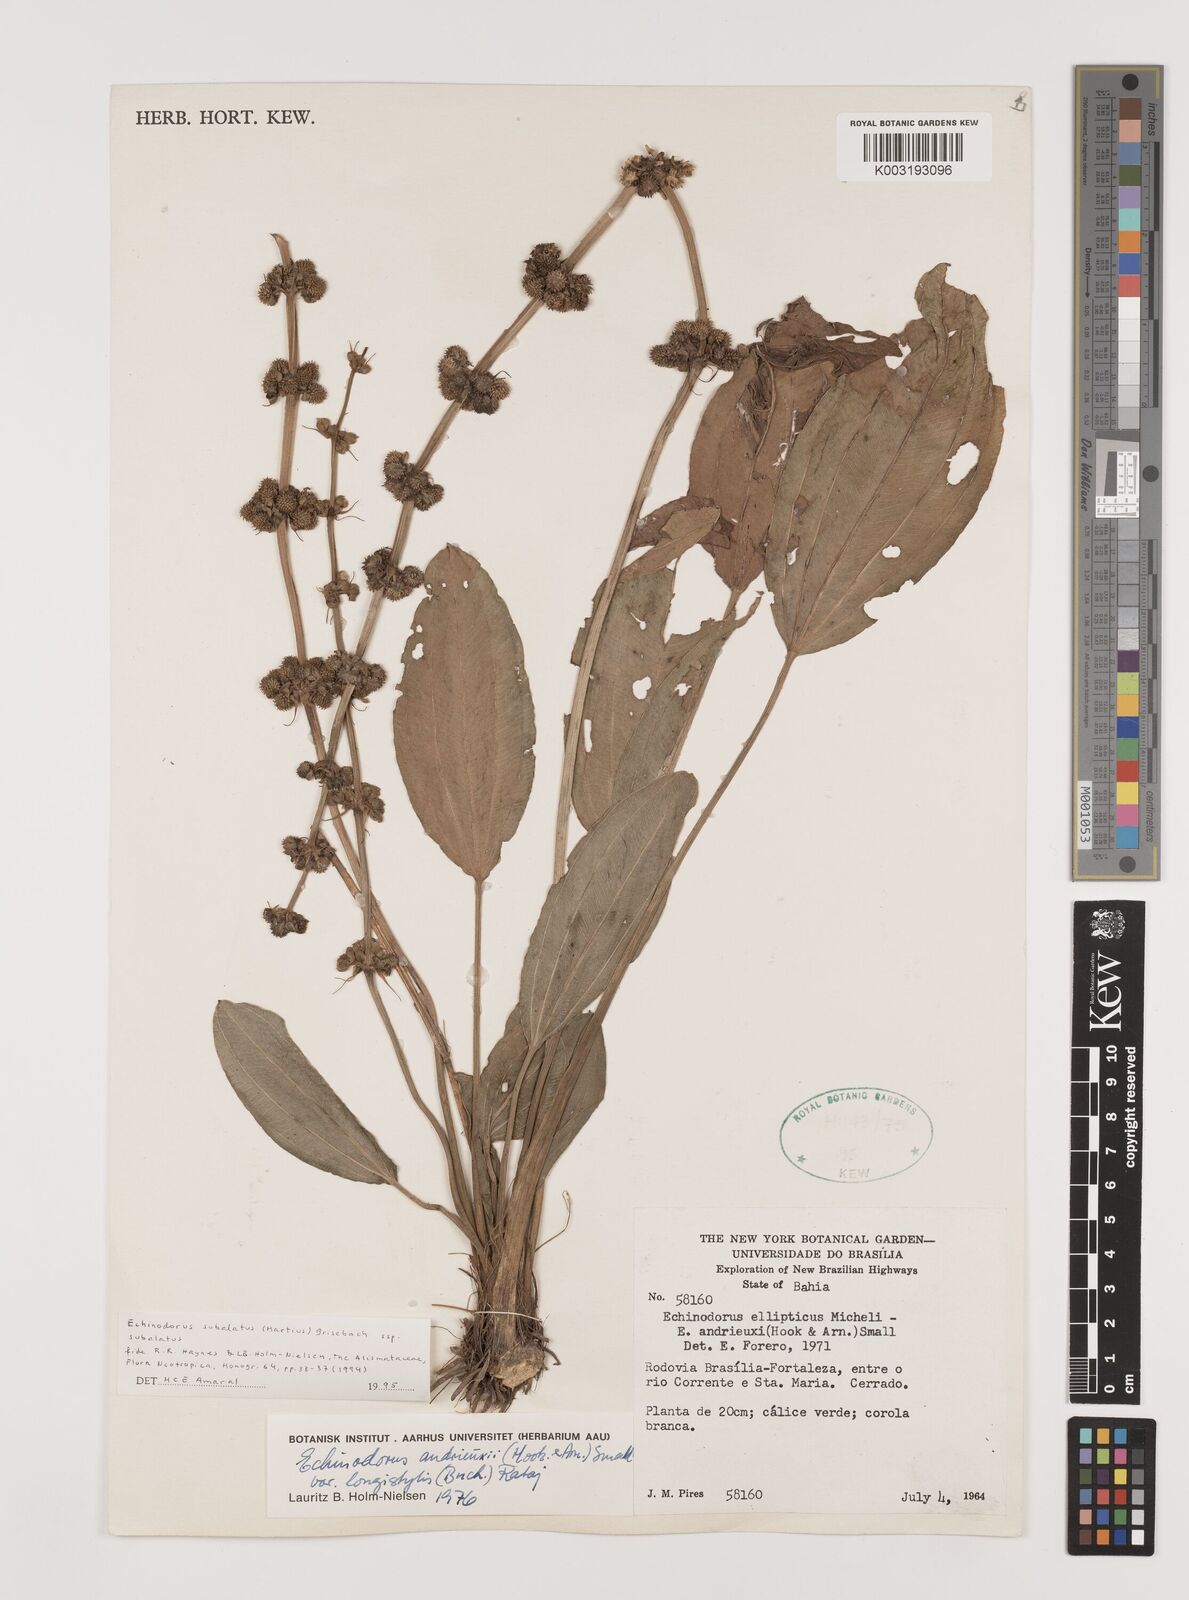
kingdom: Plantae
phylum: Tracheophyta
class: Liliopsida
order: Alismatales
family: Alismataceae
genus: Aquarius
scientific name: Aquarius subulatus
